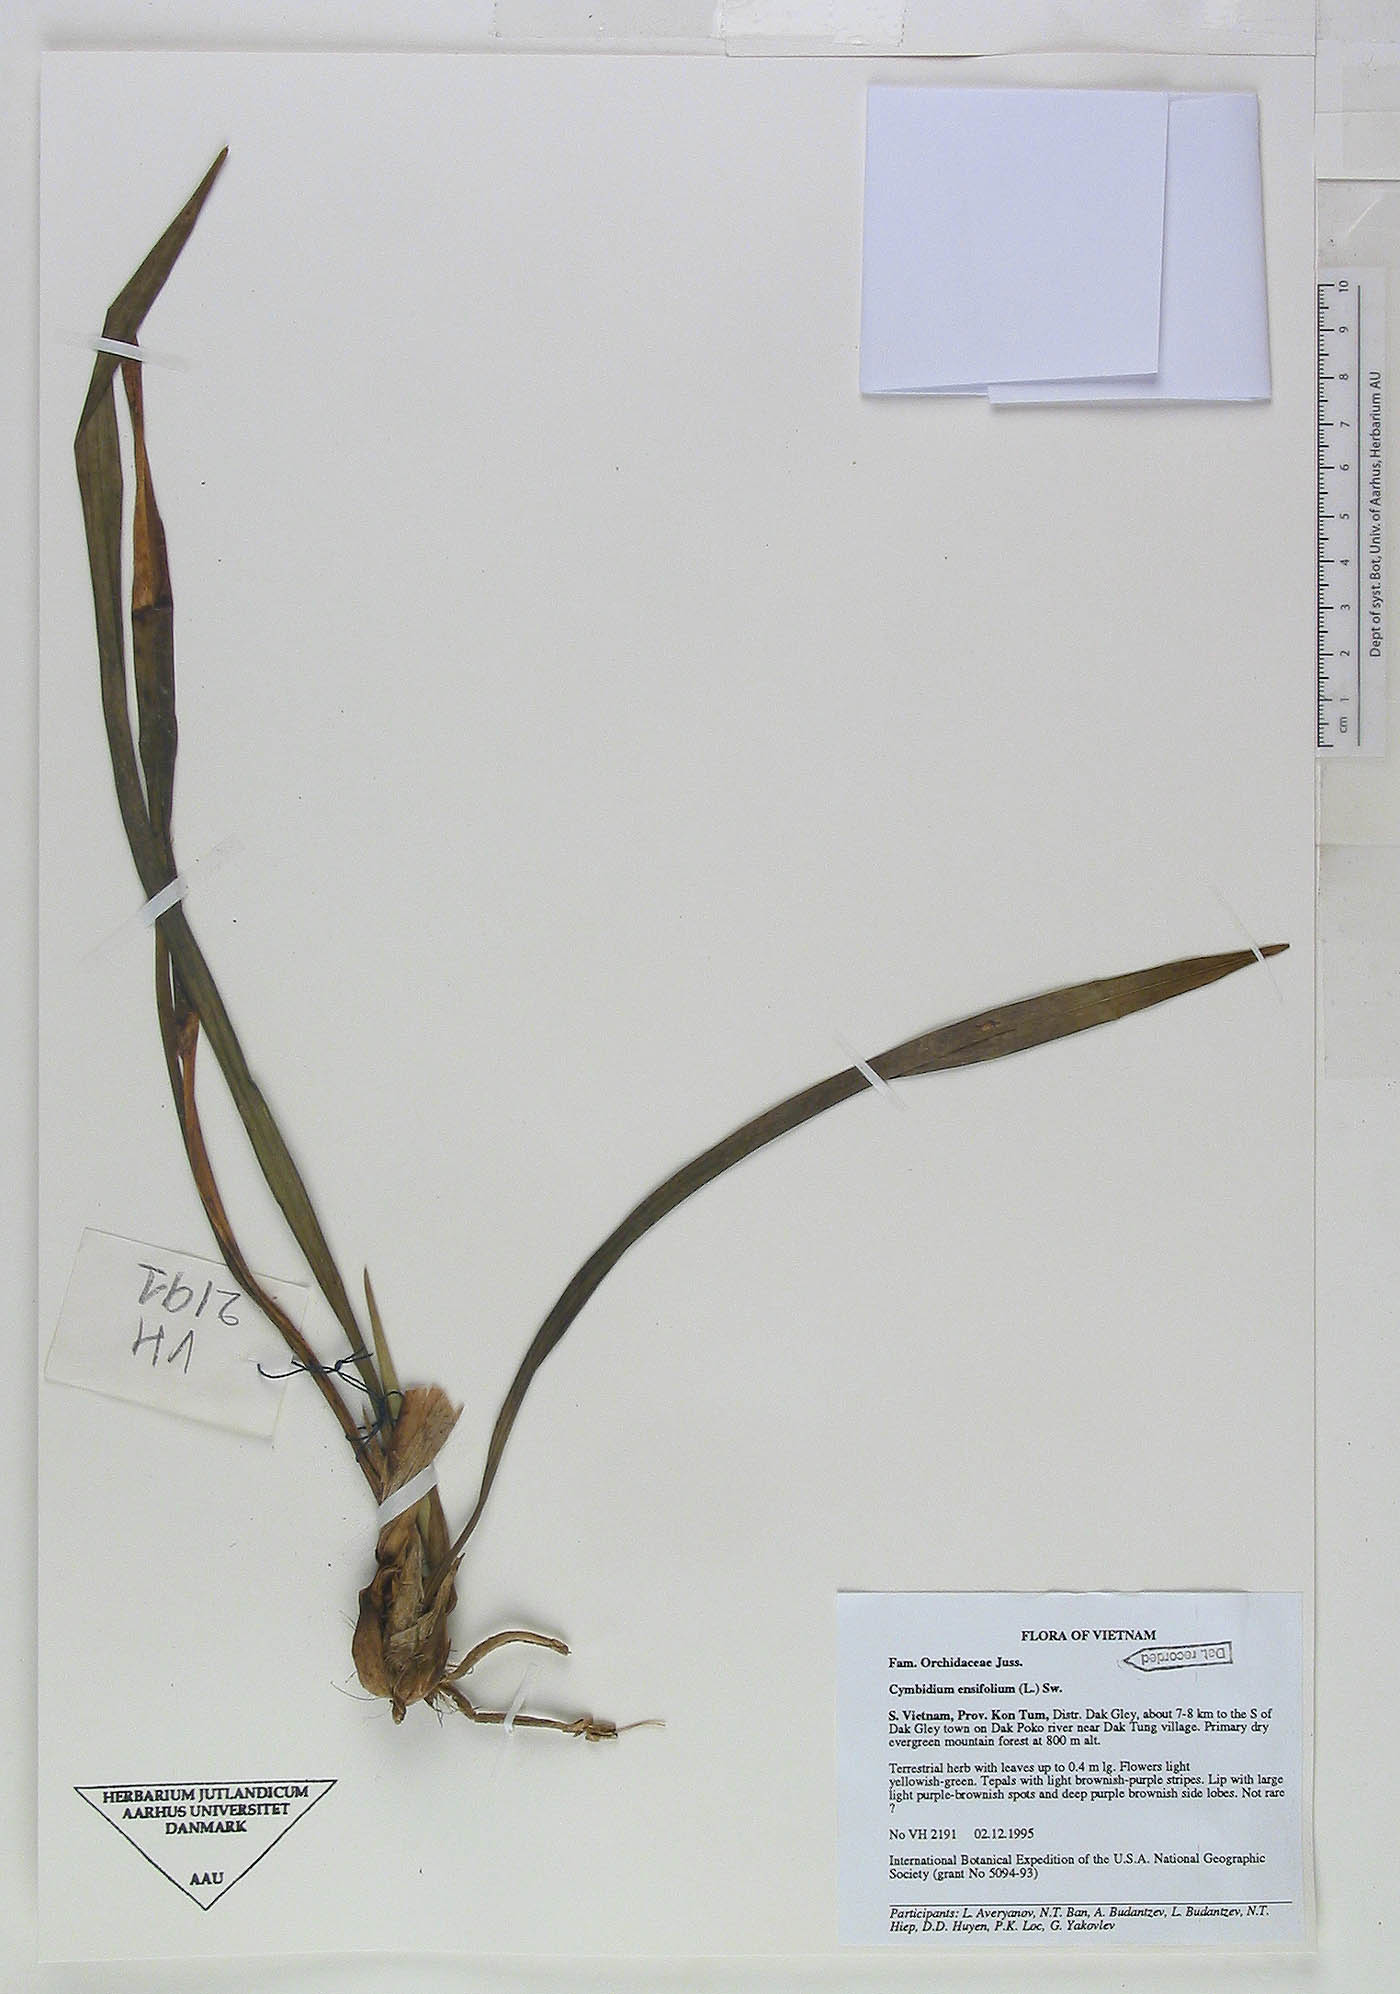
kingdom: Plantae
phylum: Tracheophyta
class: Liliopsida
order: Asparagales
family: Orchidaceae
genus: Cymbidium
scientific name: Cymbidium ensifolium
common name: Fukien-orchid
